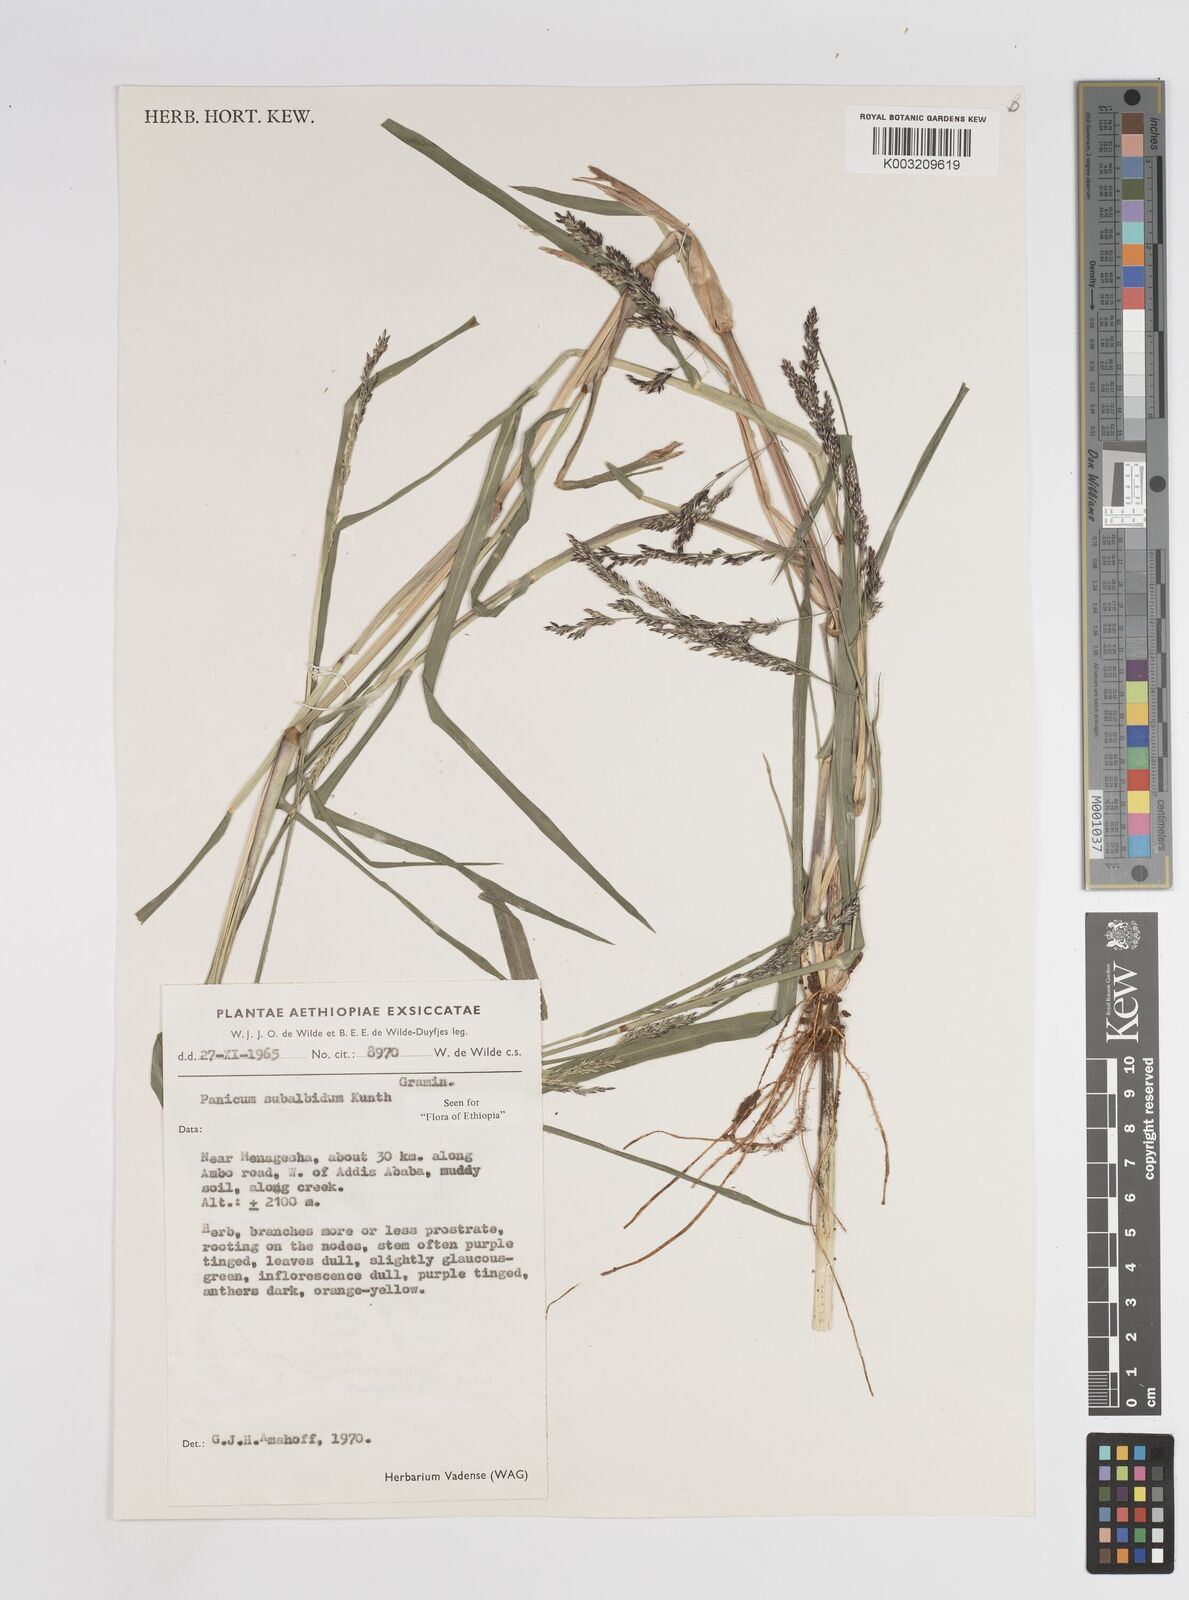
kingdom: Plantae
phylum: Tracheophyta
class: Liliopsida
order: Poales
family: Poaceae
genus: Panicum
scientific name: Panicum subalbidum
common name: Elbow buffalo grass
